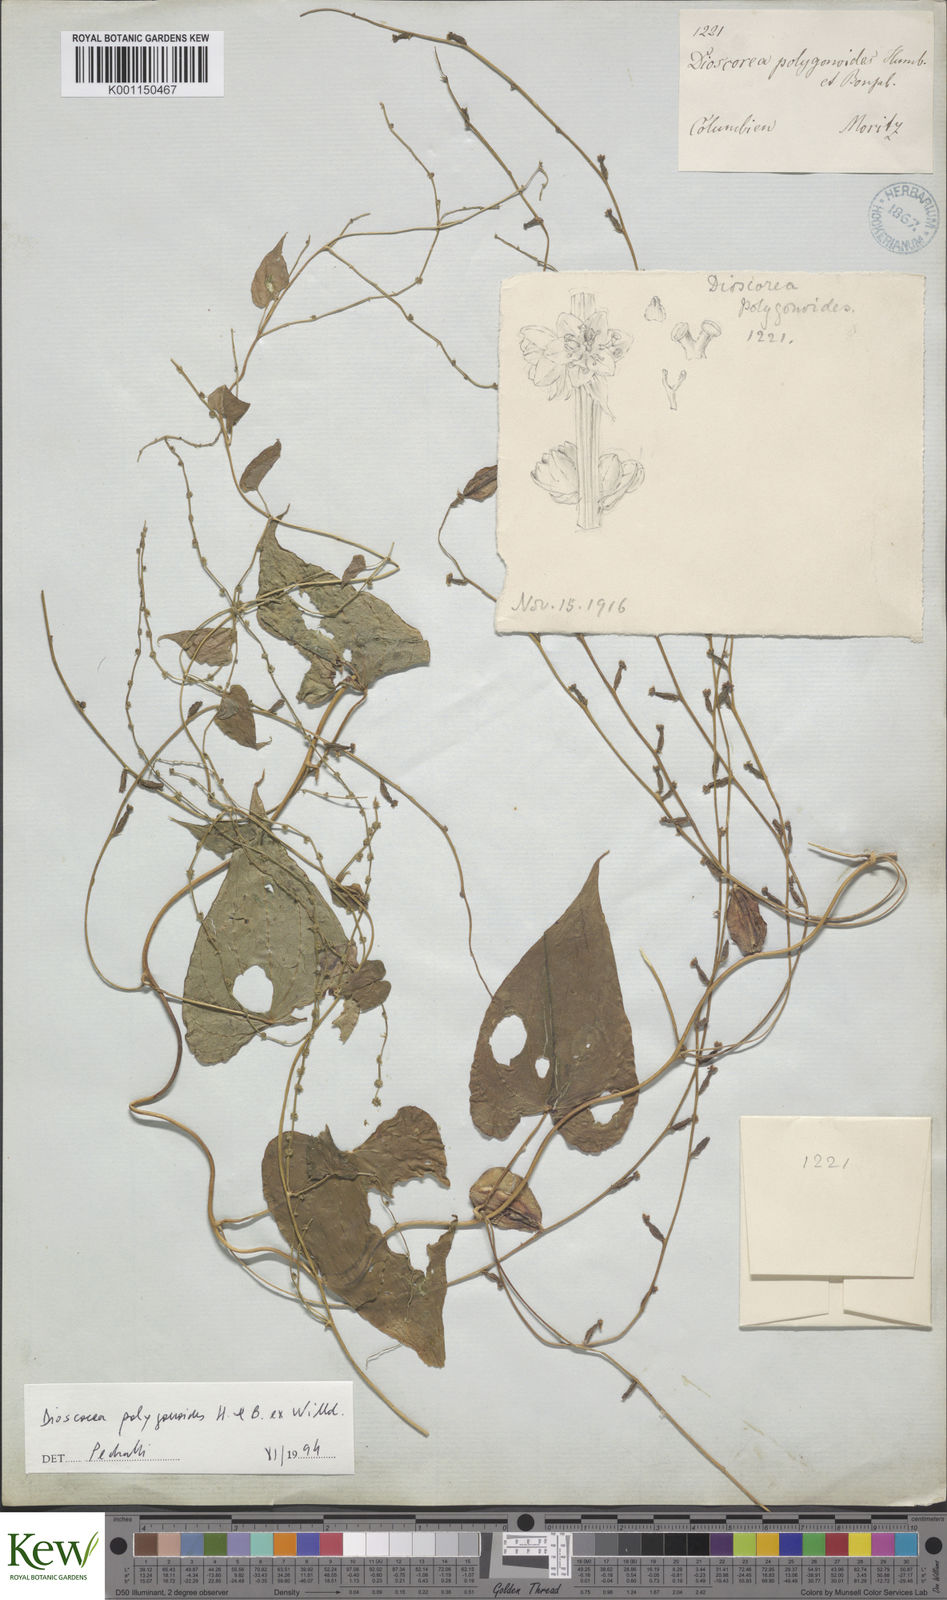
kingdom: Plantae
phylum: Tracheophyta
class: Liliopsida
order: Dioscoreales
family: Dioscoreaceae
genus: Dioscorea
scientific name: Dioscorea polygonoides
